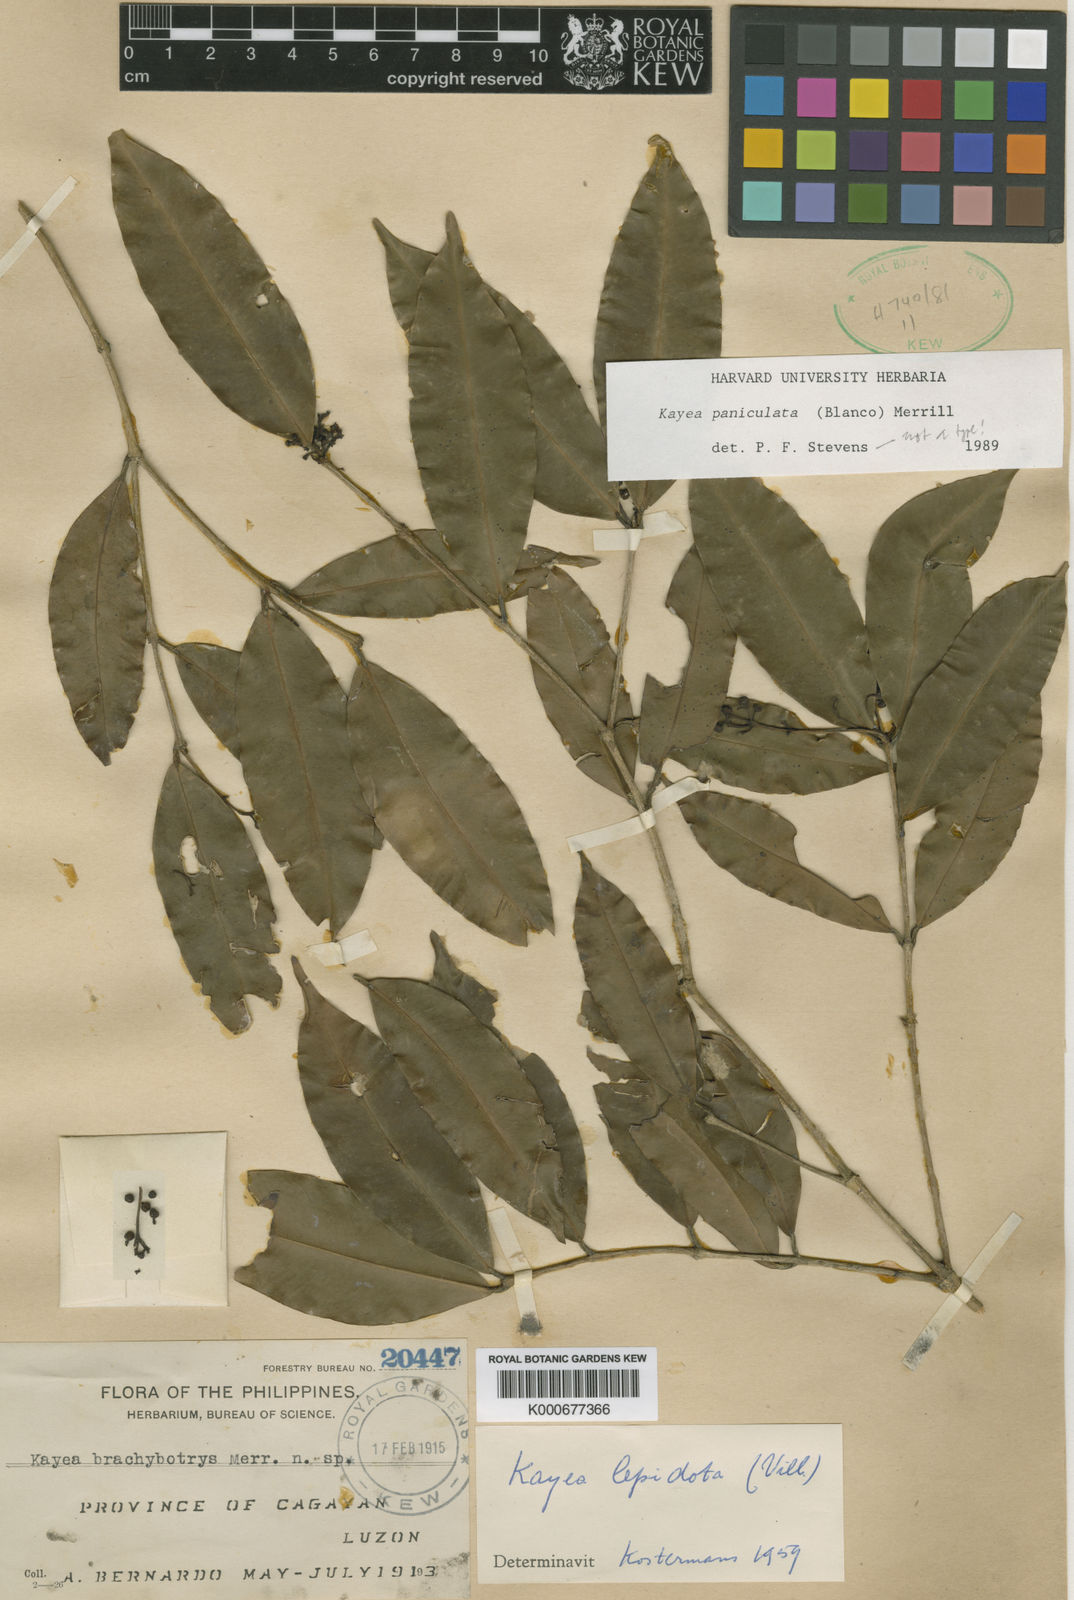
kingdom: Plantae
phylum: Tracheophyta
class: Magnoliopsida
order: Malpighiales
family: Calophyllaceae
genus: Kayea
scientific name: Kayea paniculata
